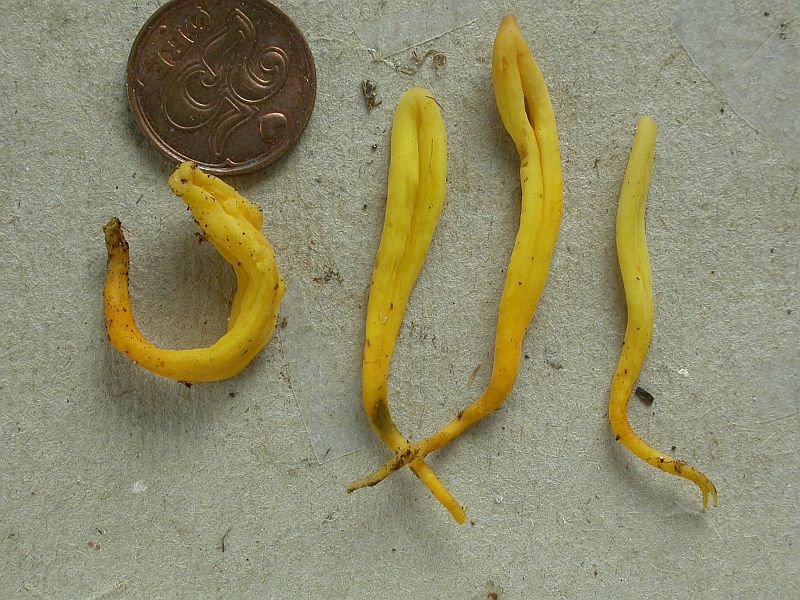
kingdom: Fungi
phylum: Basidiomycota
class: Agaricomycetes
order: Agaricales
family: Clavariaceae
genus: Clavulinopsis
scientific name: Clavulinopsis laeticolor
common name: flamme-køllesvamp
